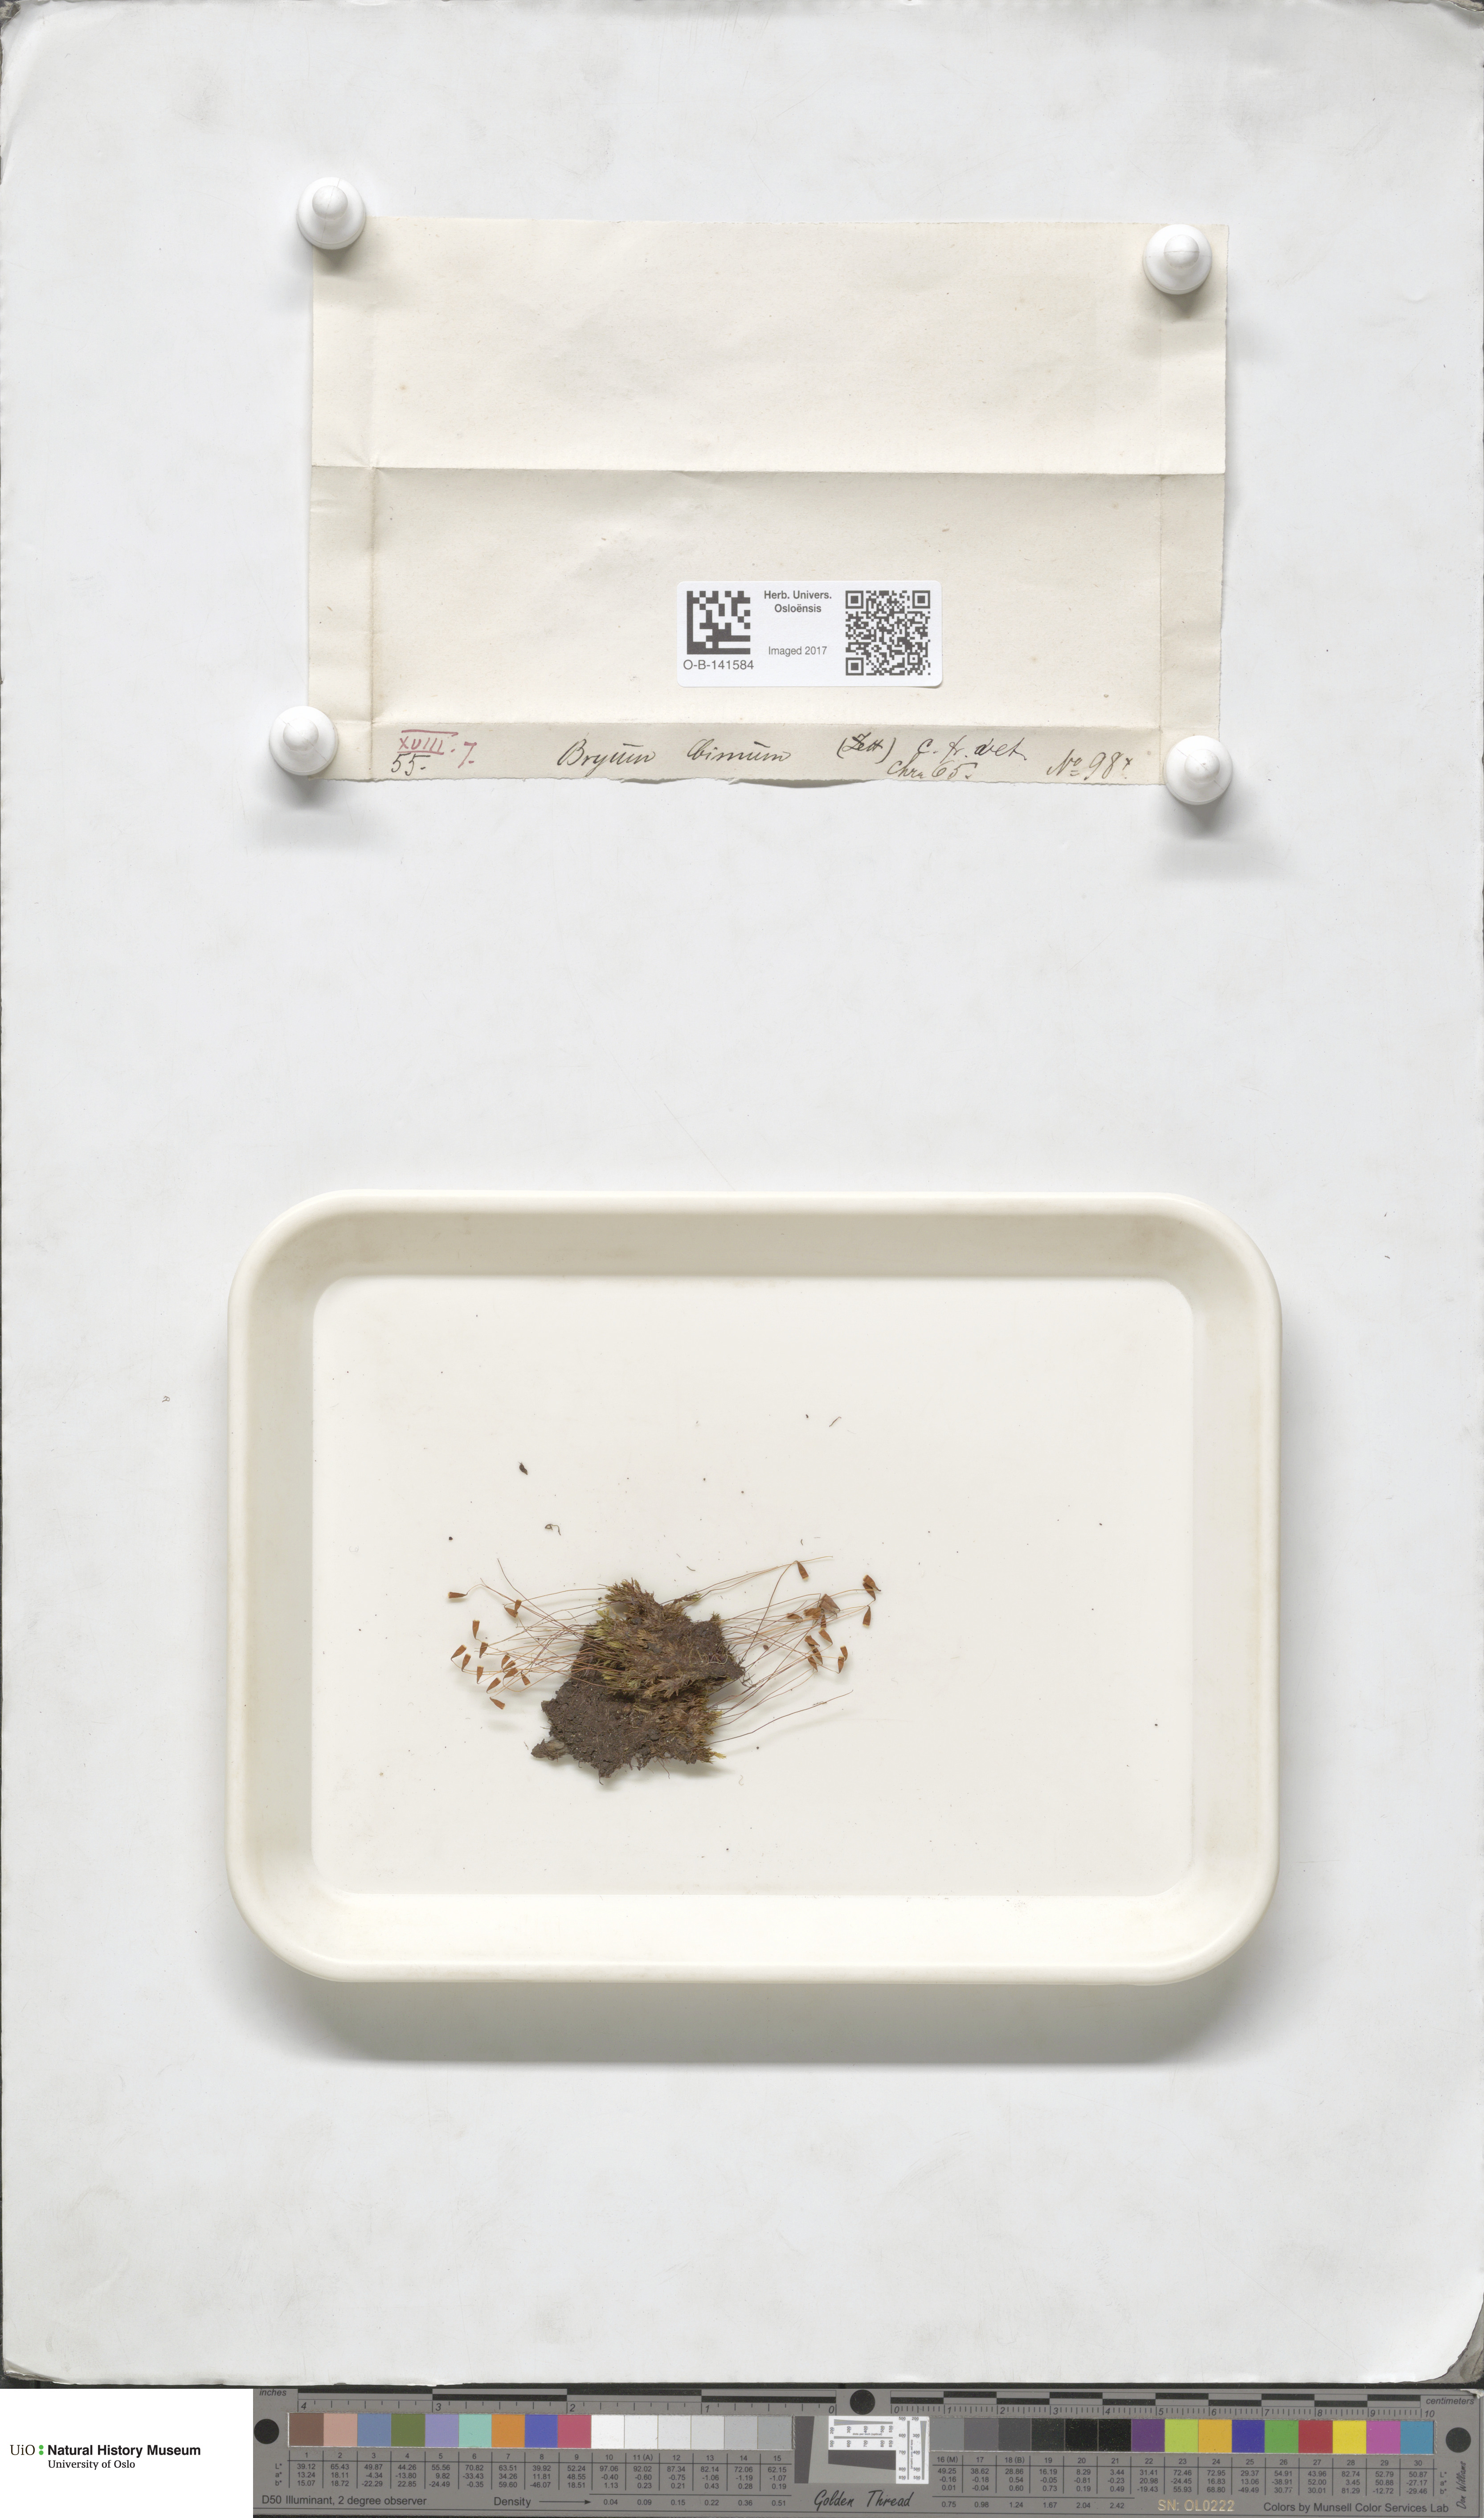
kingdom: Plantae
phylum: Bryophyta
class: Bryopsida
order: Bryales
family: Bryaceae
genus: Ptychostomum
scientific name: Ptychostomum bimum
